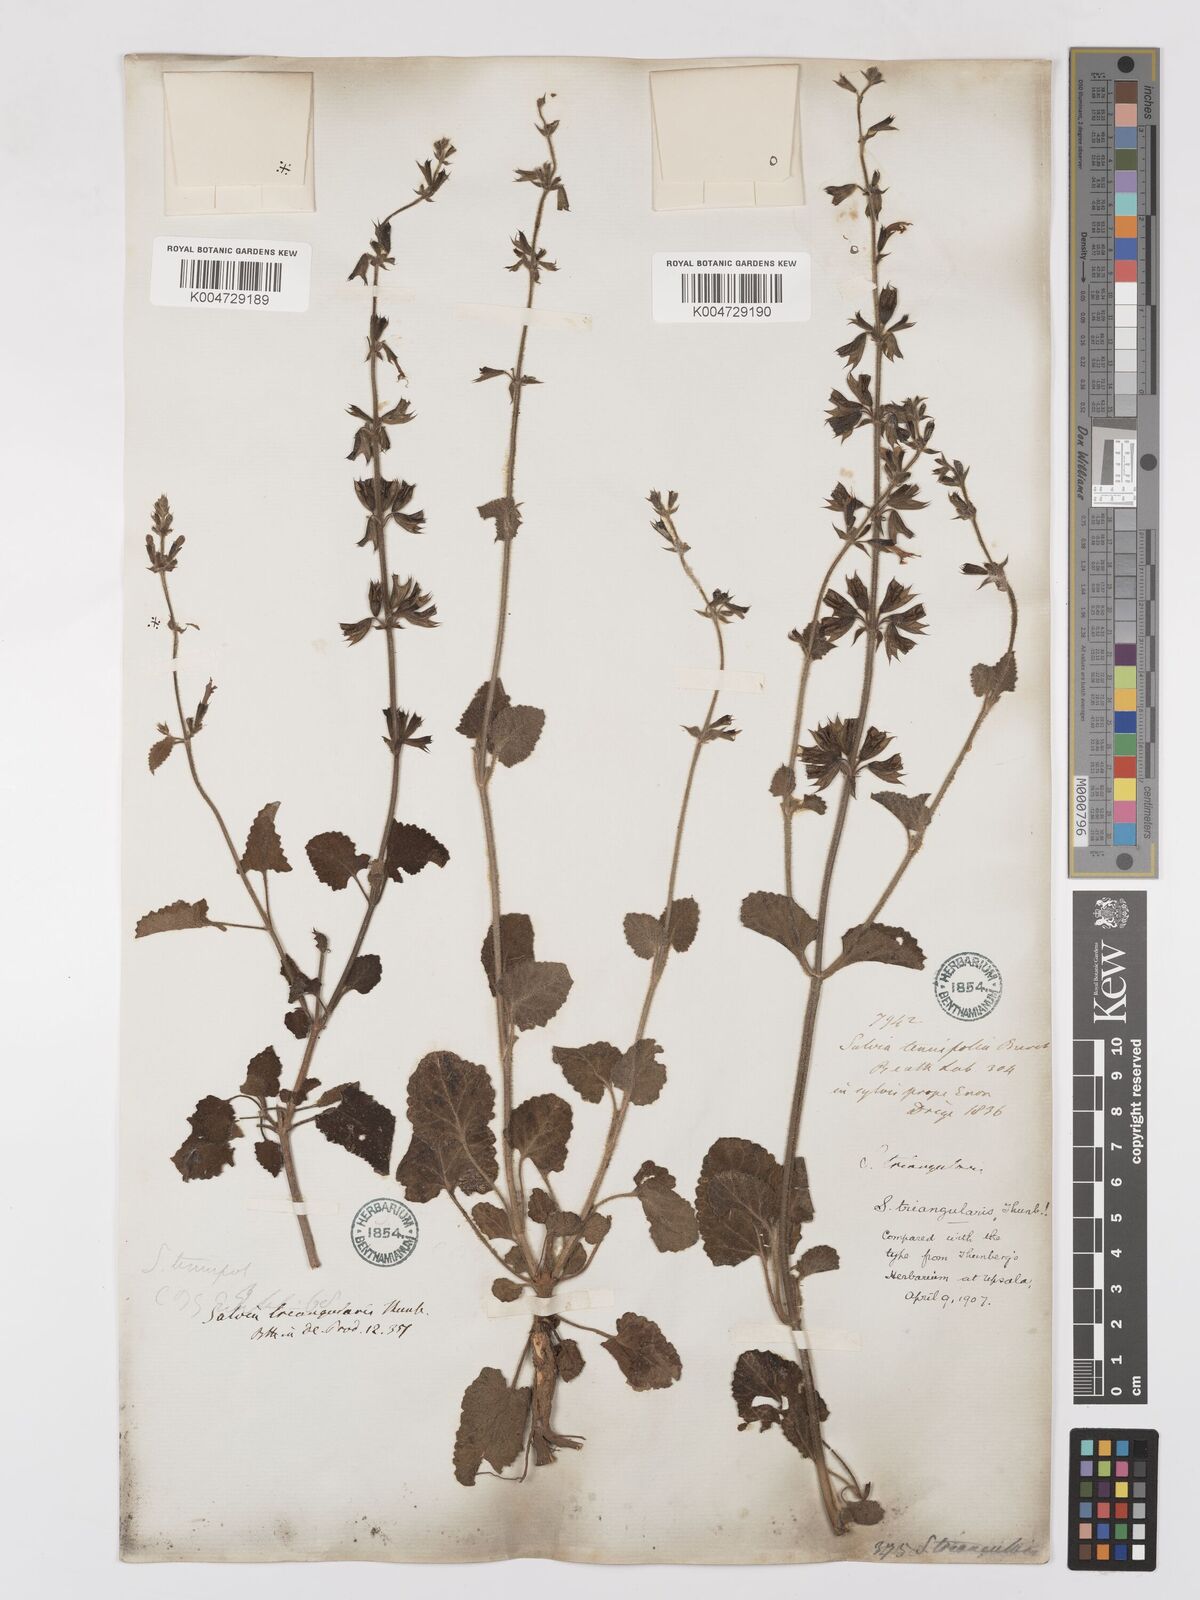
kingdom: Plantae
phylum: Tracheophyta
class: Magnoliopsida
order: Lamiales
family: Lamiaceae
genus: Salvia
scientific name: Salvia triangularis
